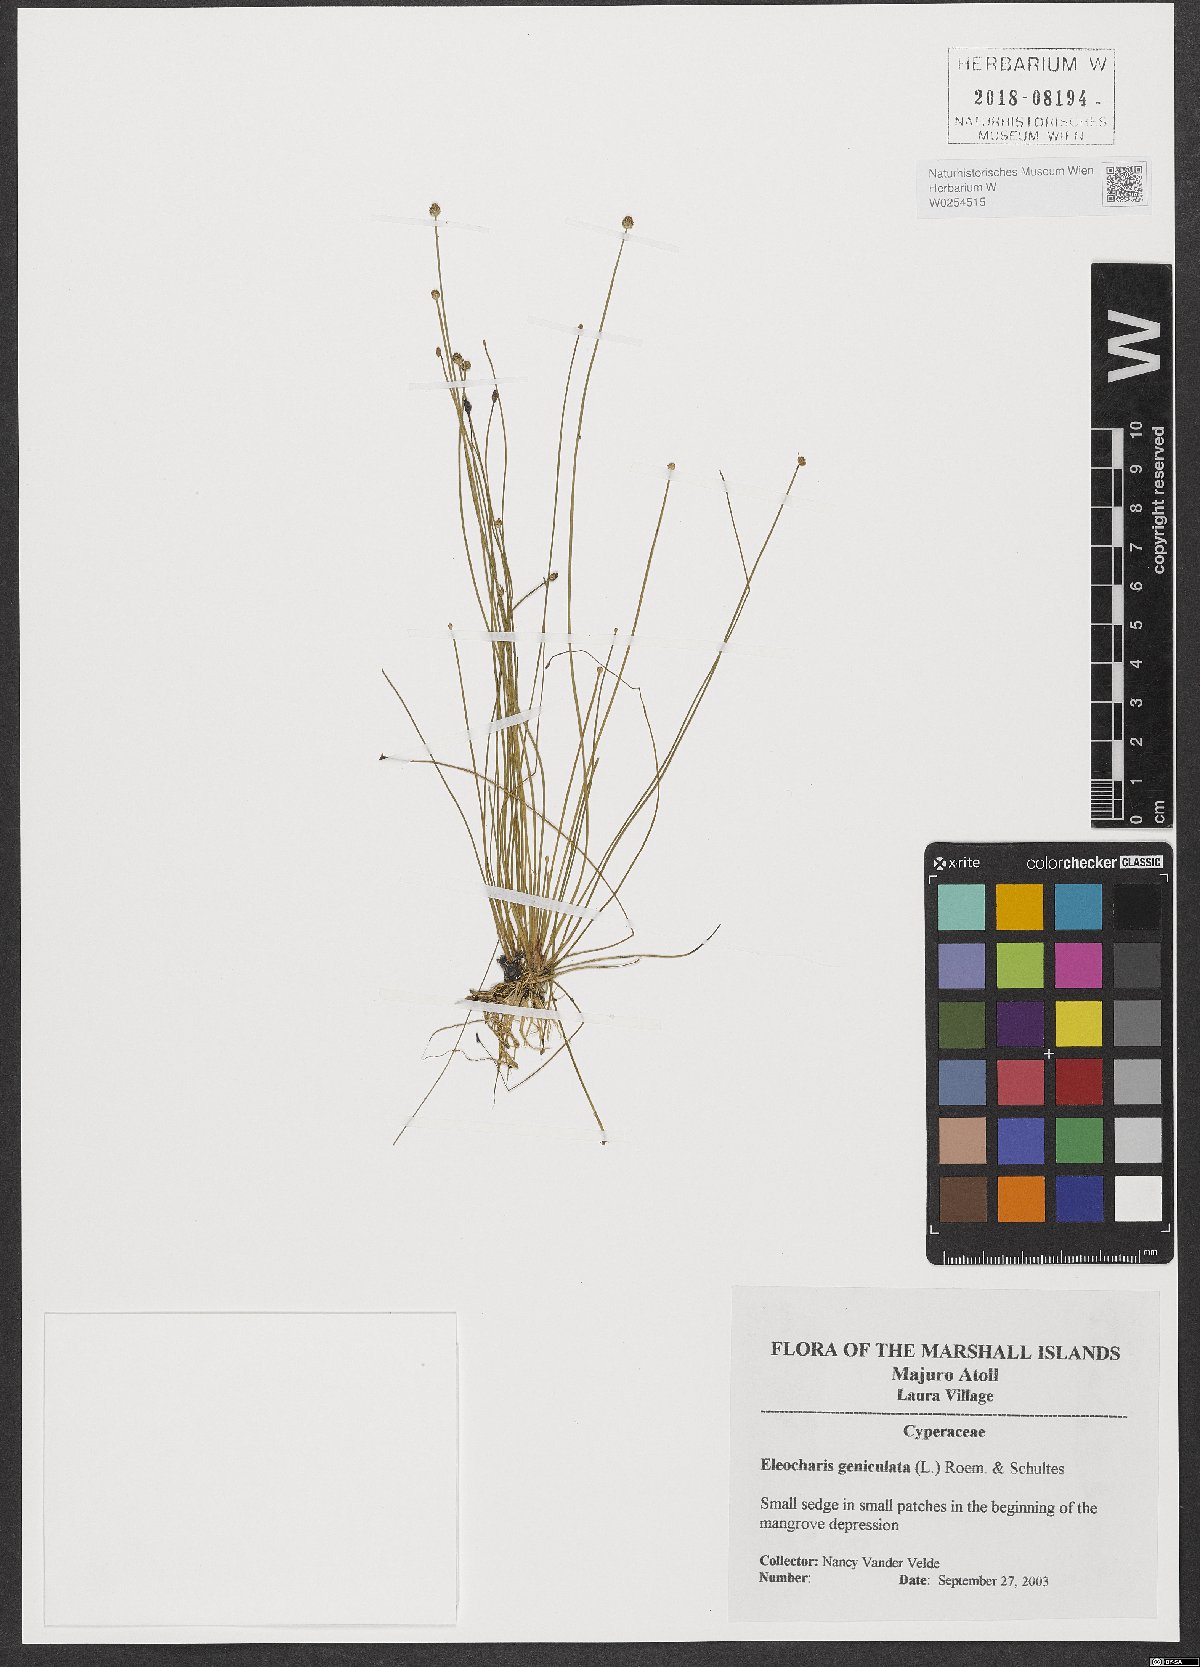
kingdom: Plantae
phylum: Tracheophyta
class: Liliopsida
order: Poales
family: Cyperaceae
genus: Eleocharis
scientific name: Eleocharis geniculata
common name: Canada spikesedge
